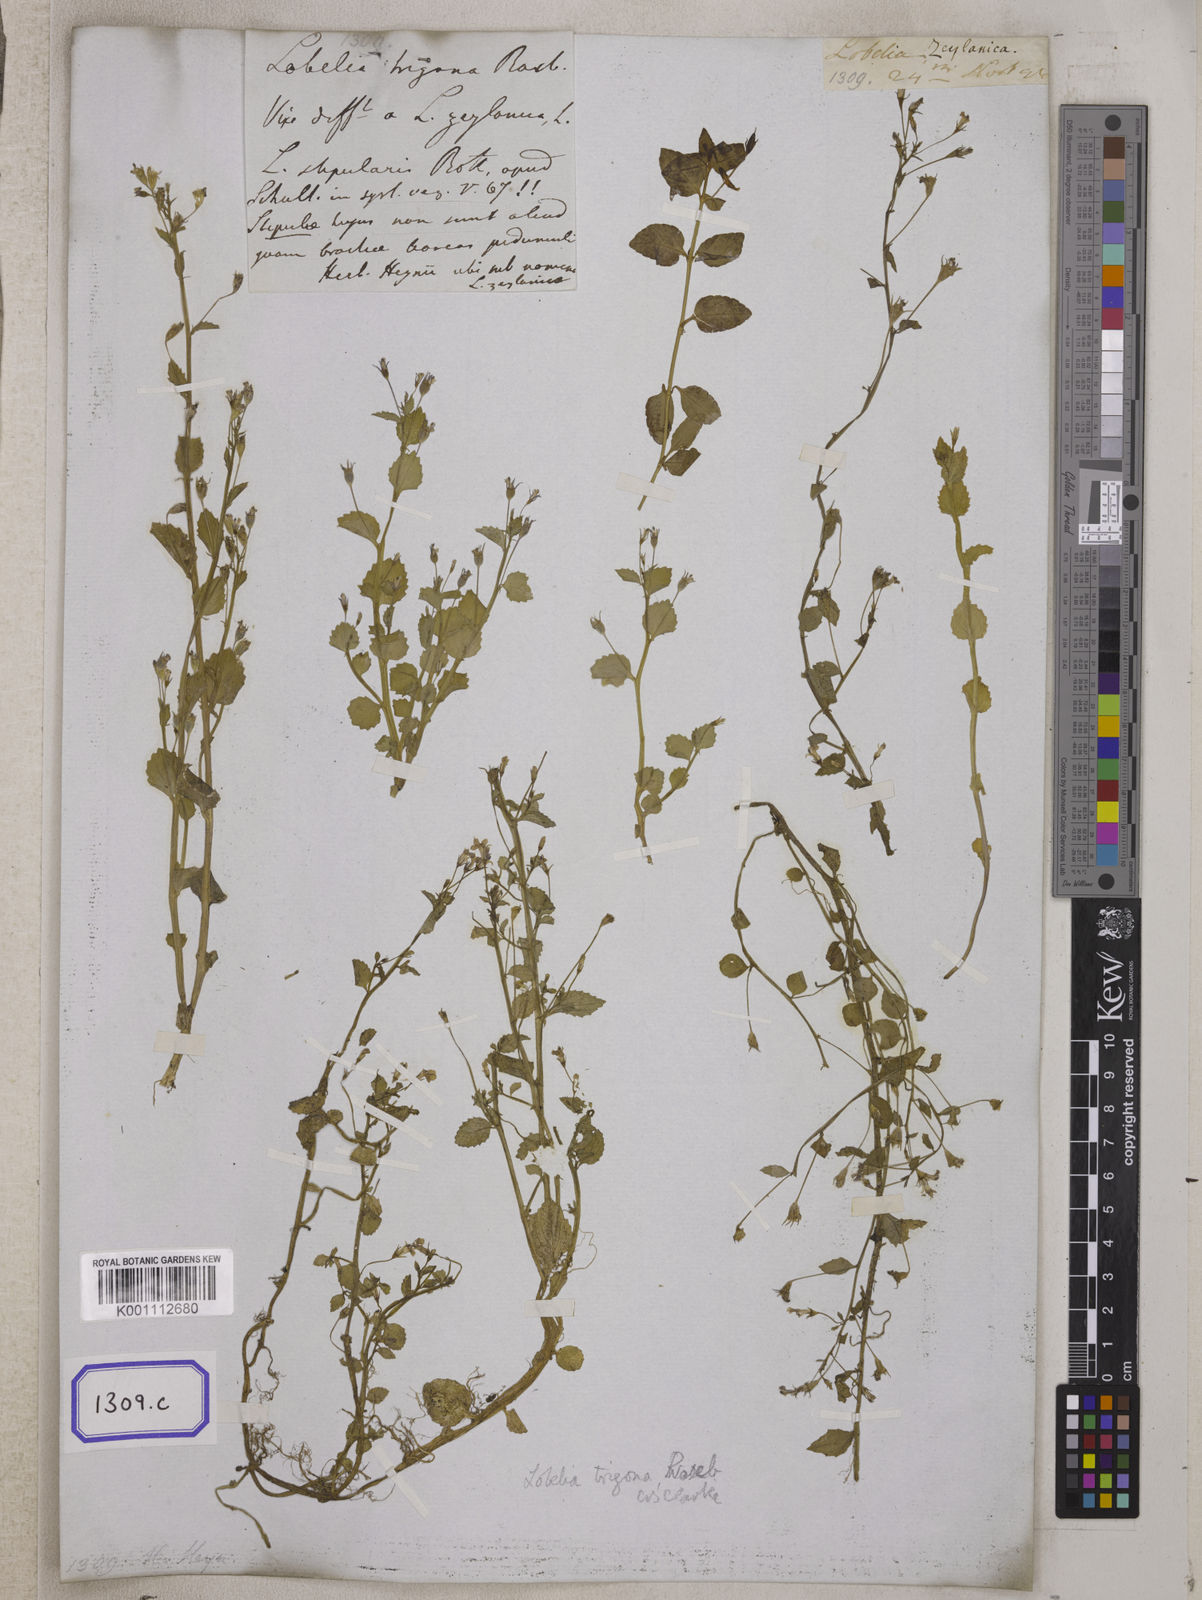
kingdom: Plantae
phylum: Tracheophyta
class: Magnoliopsida
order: Asterales
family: Campanulaceae
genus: Lobelia
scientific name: Lobelia alsinoides
